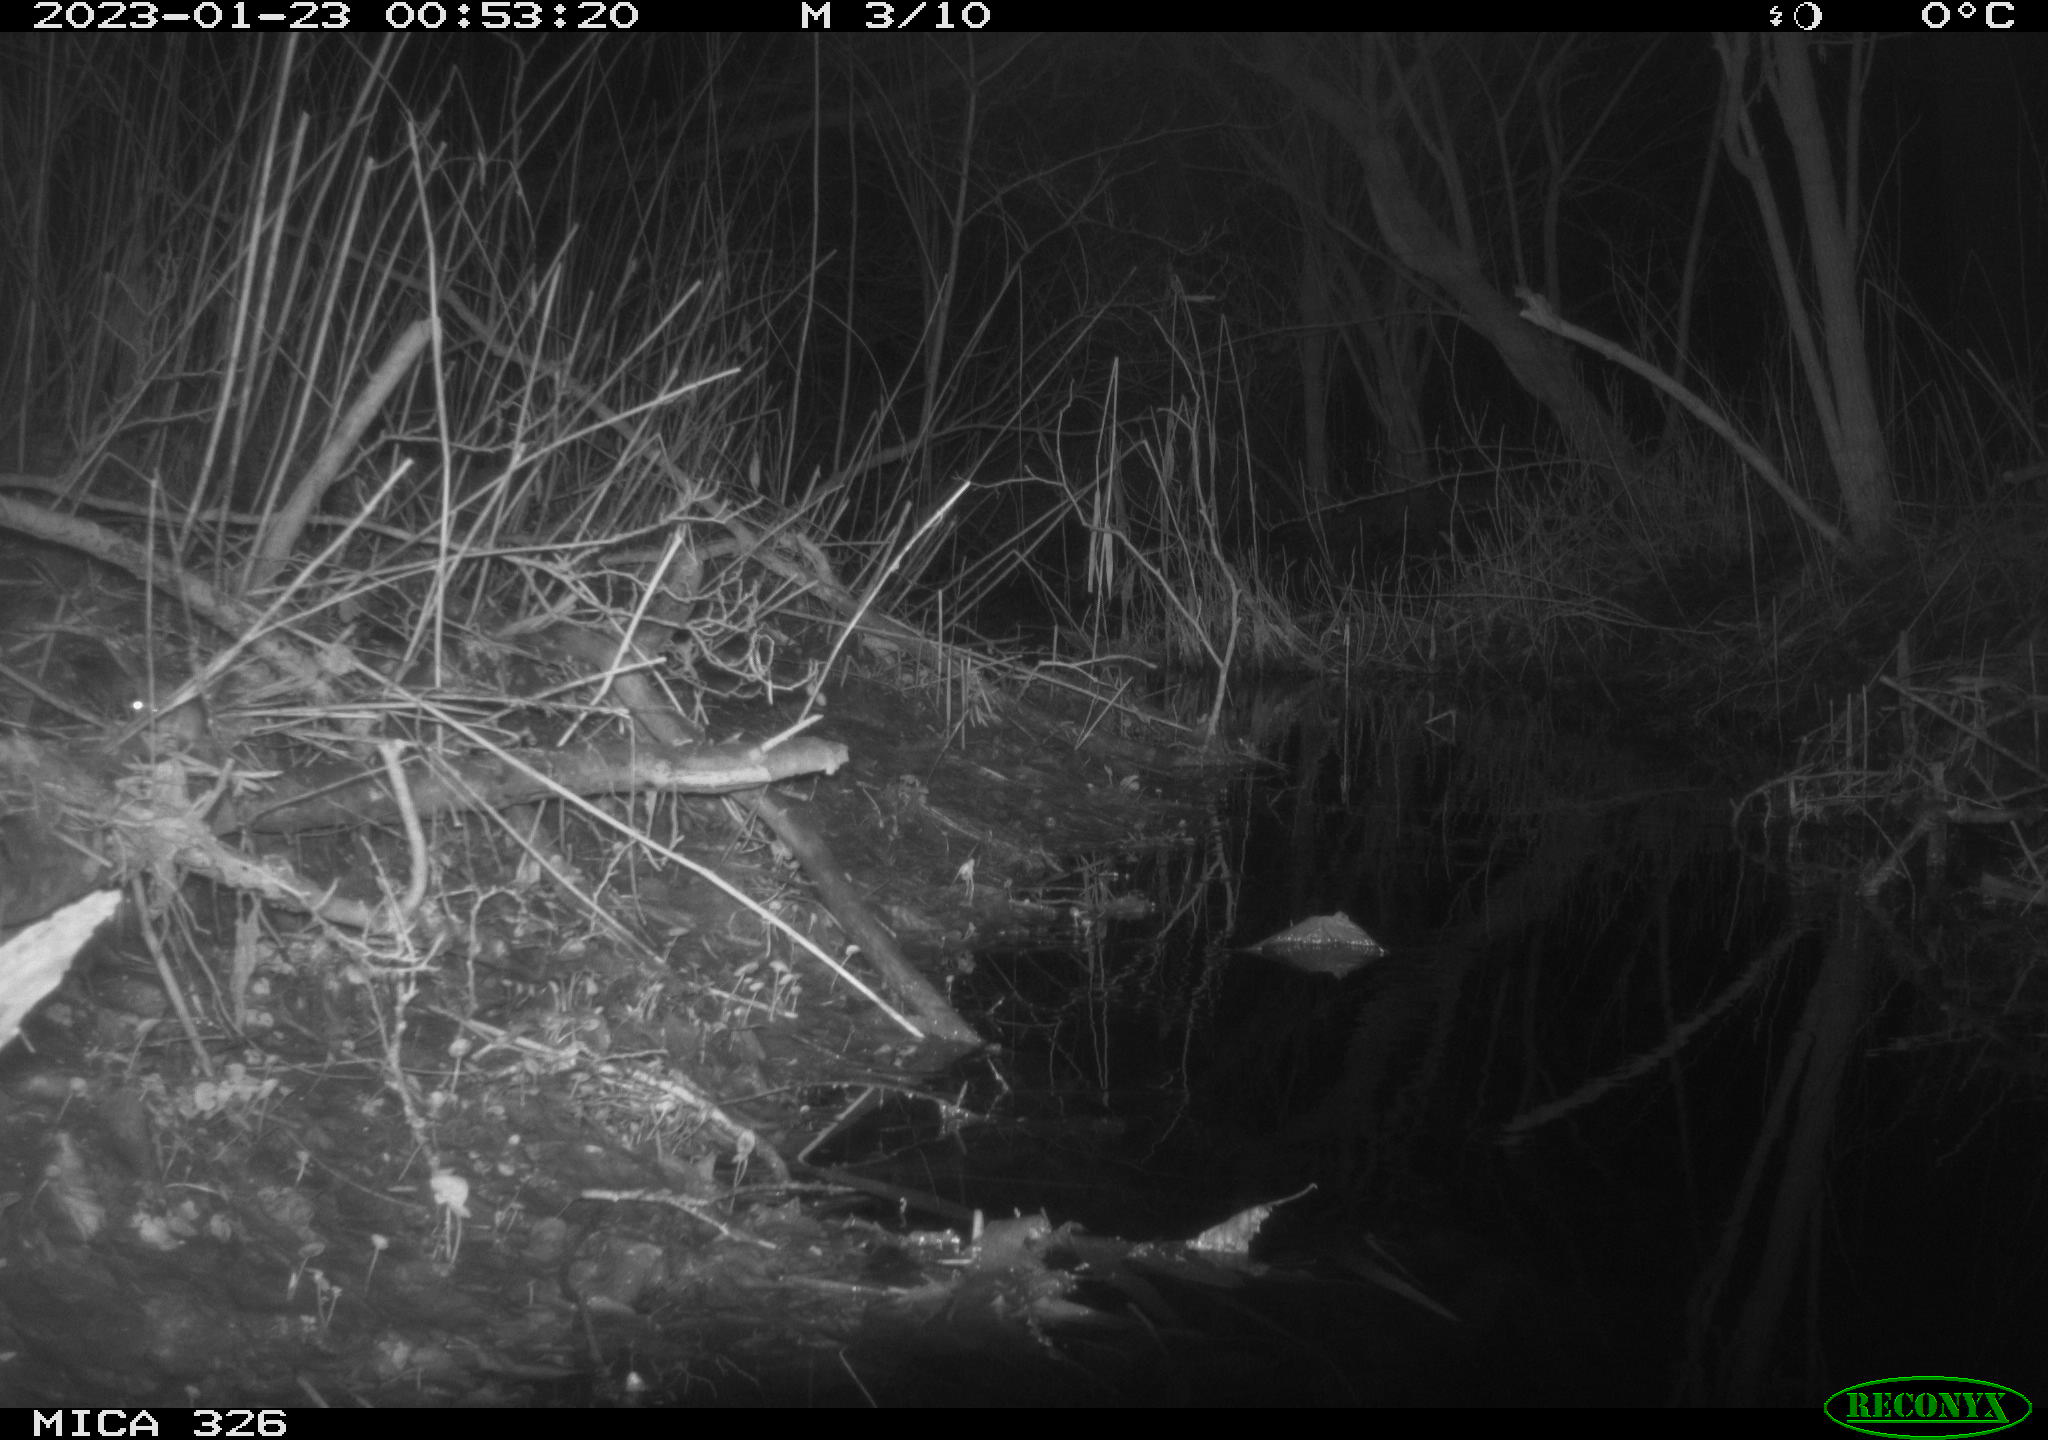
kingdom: Animalia
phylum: Chordata
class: Mammalia
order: Rodentia
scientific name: Rodentia
